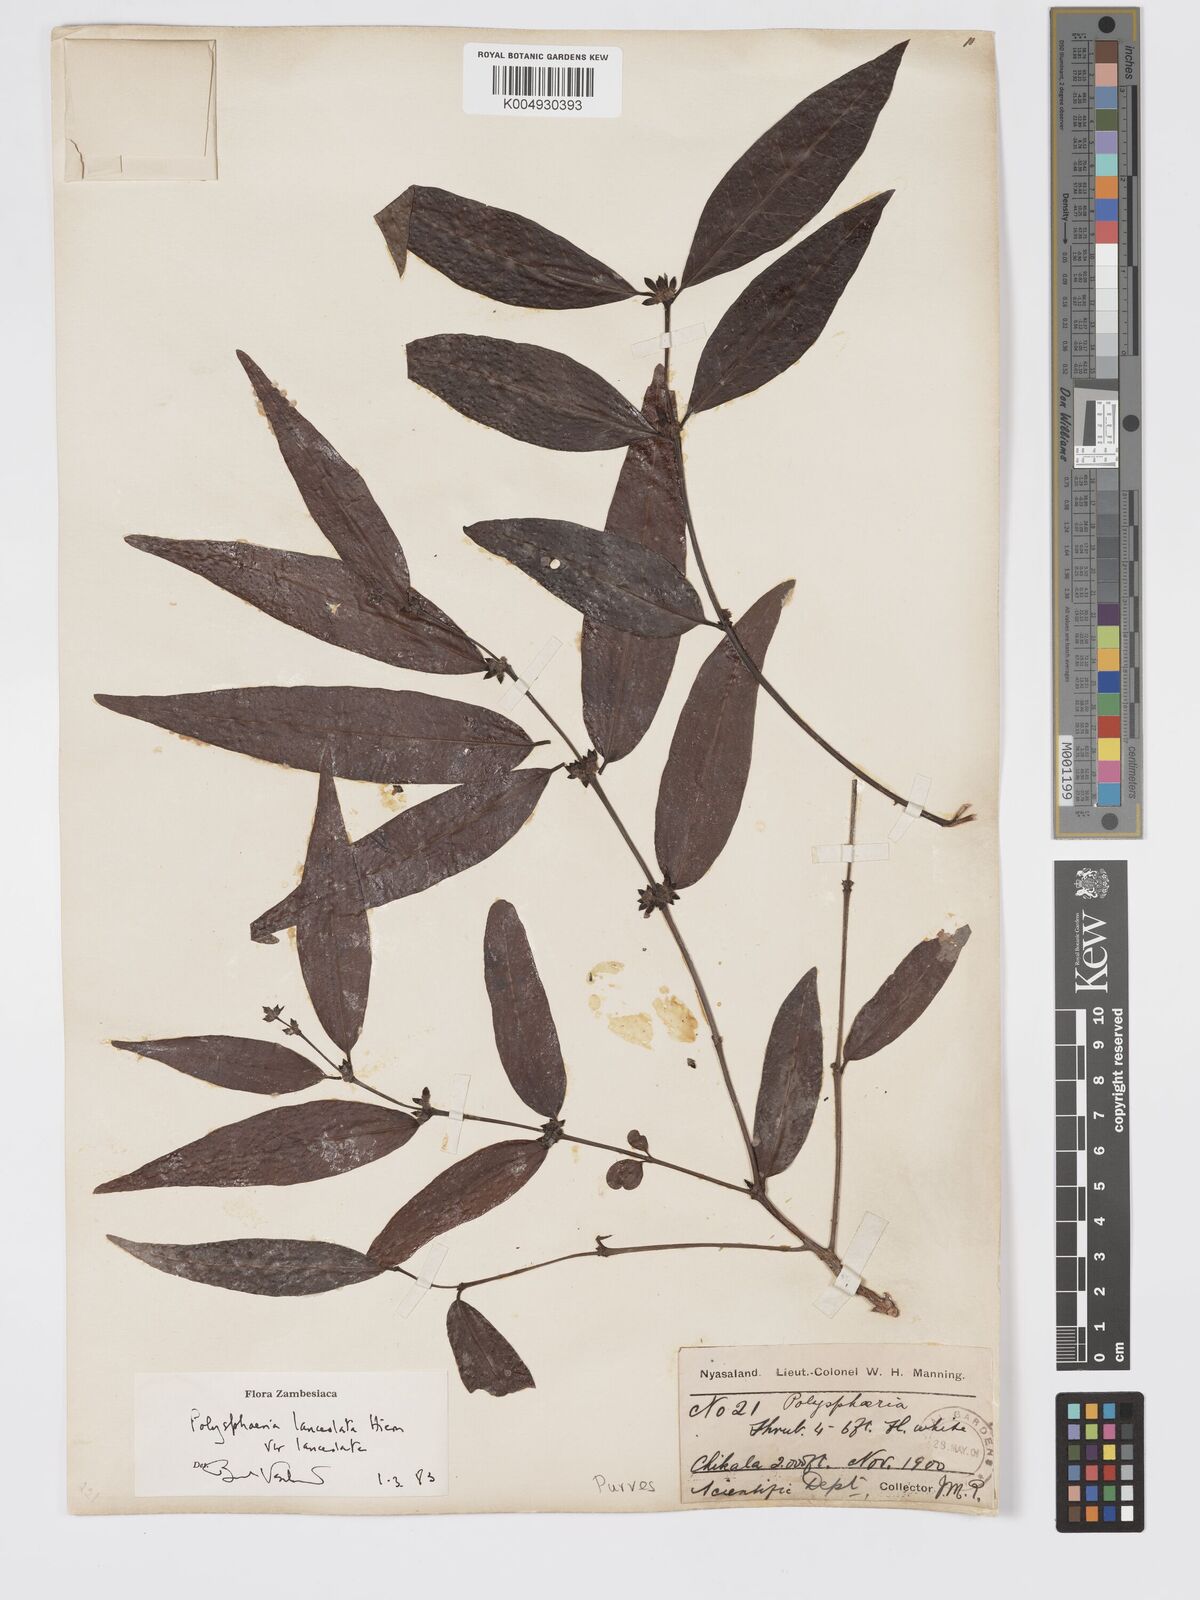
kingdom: Plantae
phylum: Tracheophyta
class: Magnoliopsida
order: Gentianales
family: Rubiaceae
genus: Polysphaeria
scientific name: Polysphaeria lanceolata
